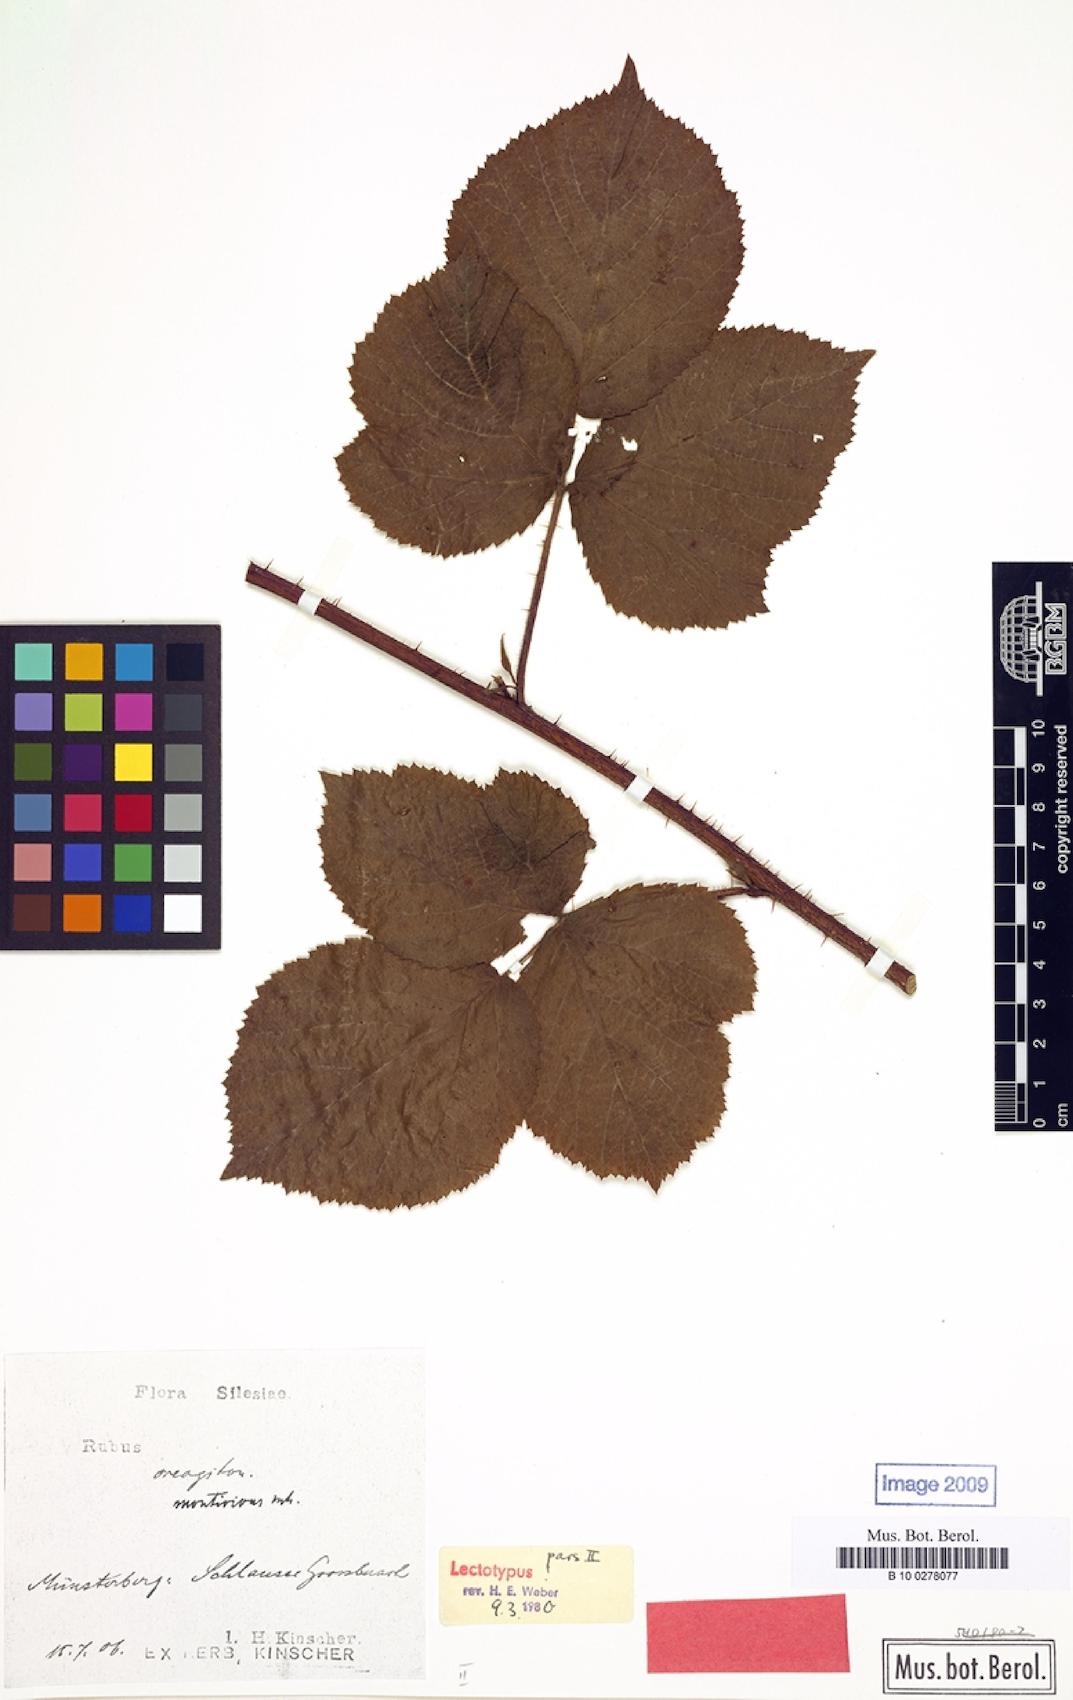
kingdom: Plantae
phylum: Tracheophyta
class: Magnoliopsida
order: Rosales
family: Rosaceae
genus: Rubus
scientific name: Rubus dollnensis
